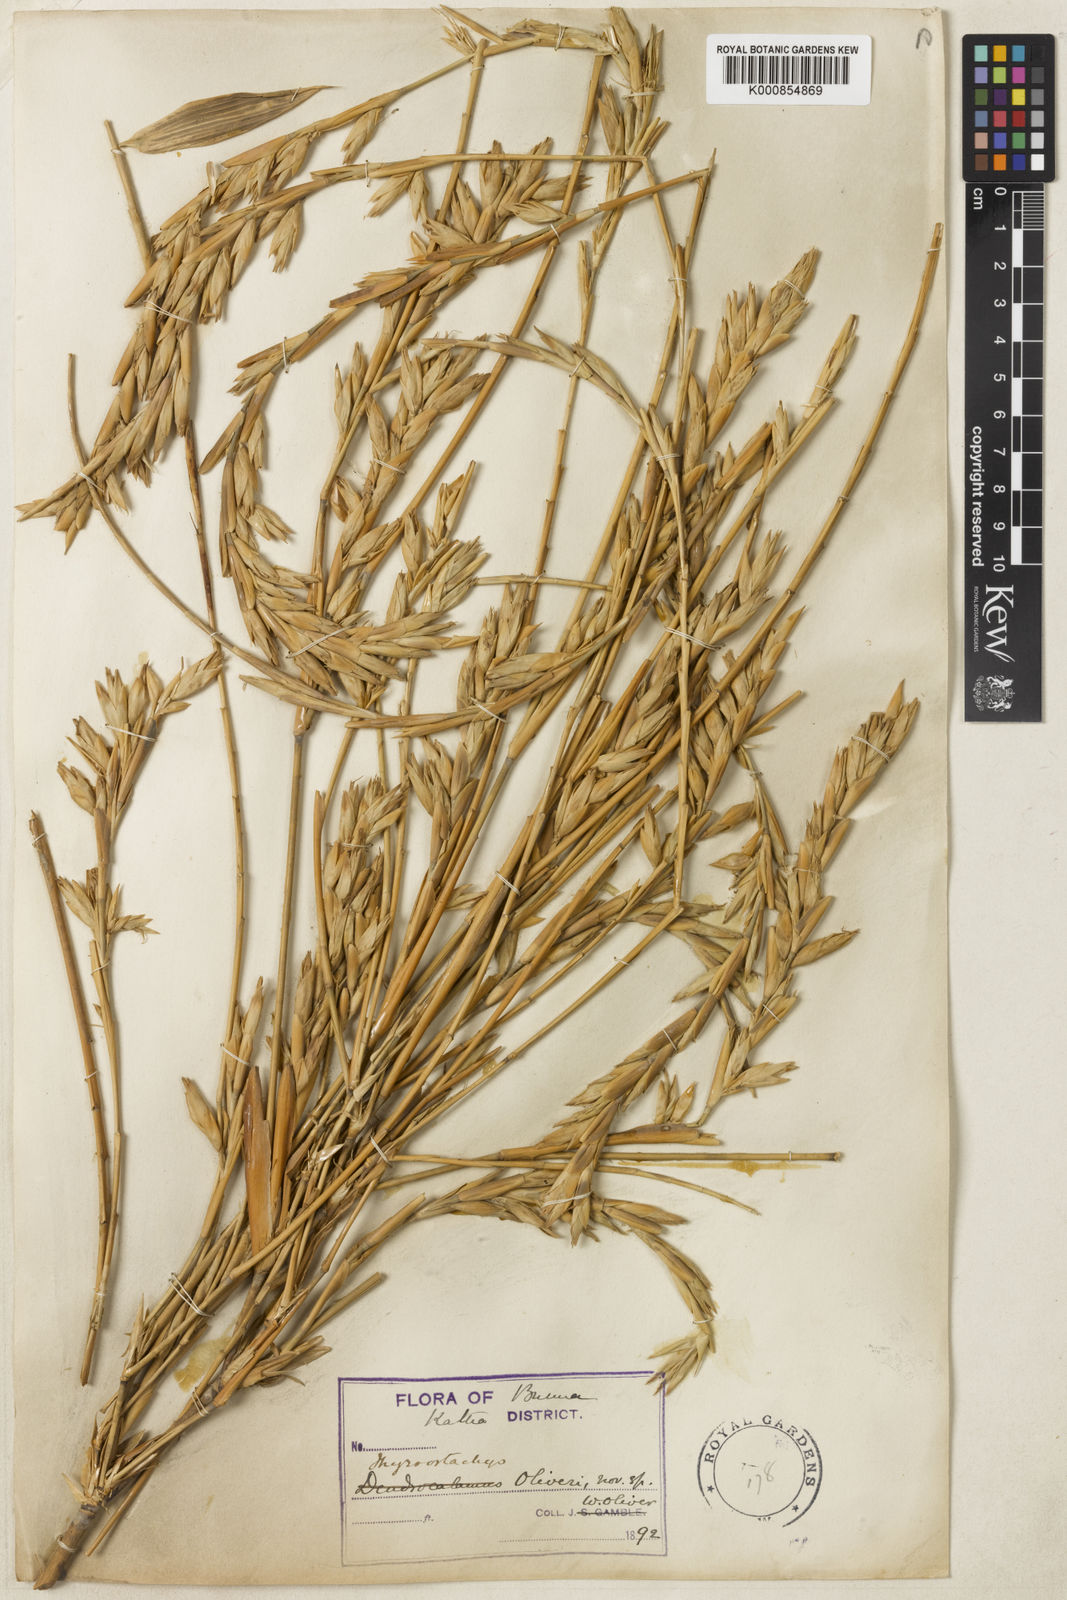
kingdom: Plantae
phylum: Tracheophyta
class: Liliopsida
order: Poales
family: Poaceae
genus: Thyrsostachys
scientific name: Thyrsostachys oliveri
